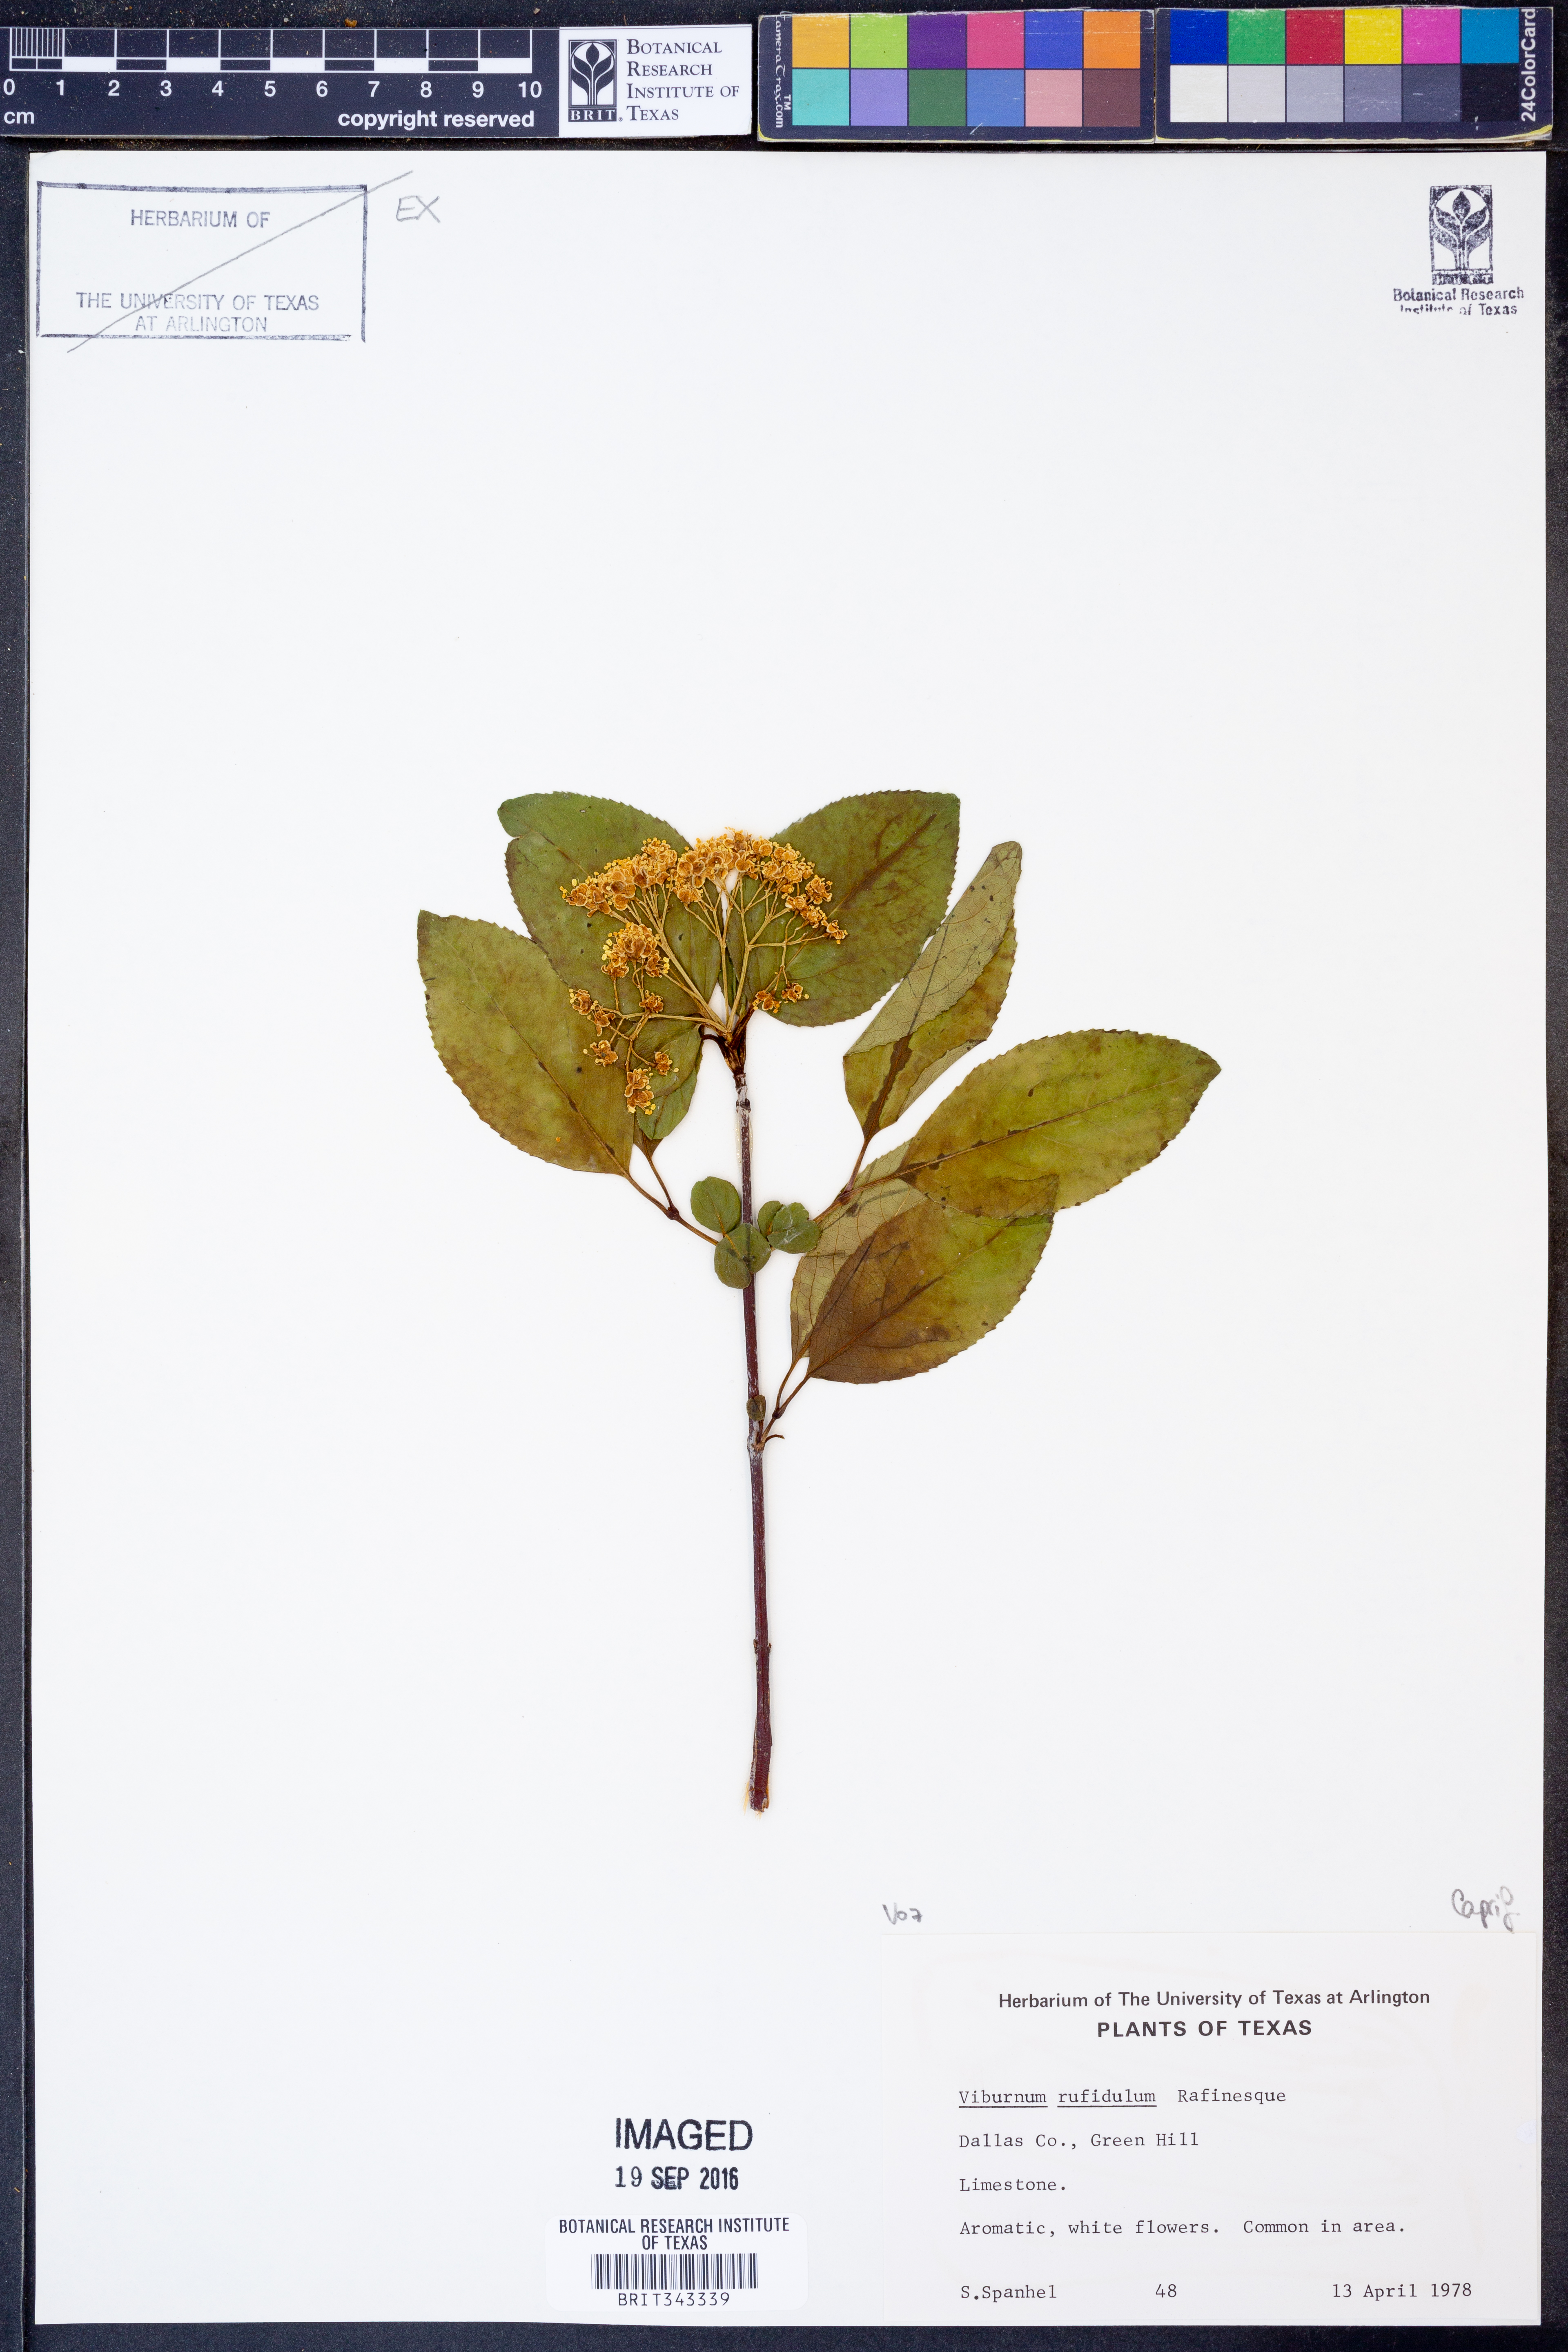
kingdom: Plantae
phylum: Tracheophyta
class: Magnoliopsida
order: Dipsacales
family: Viburnaceae
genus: Viburnum
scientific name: Viburnum rufidulum
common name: Blue haw
